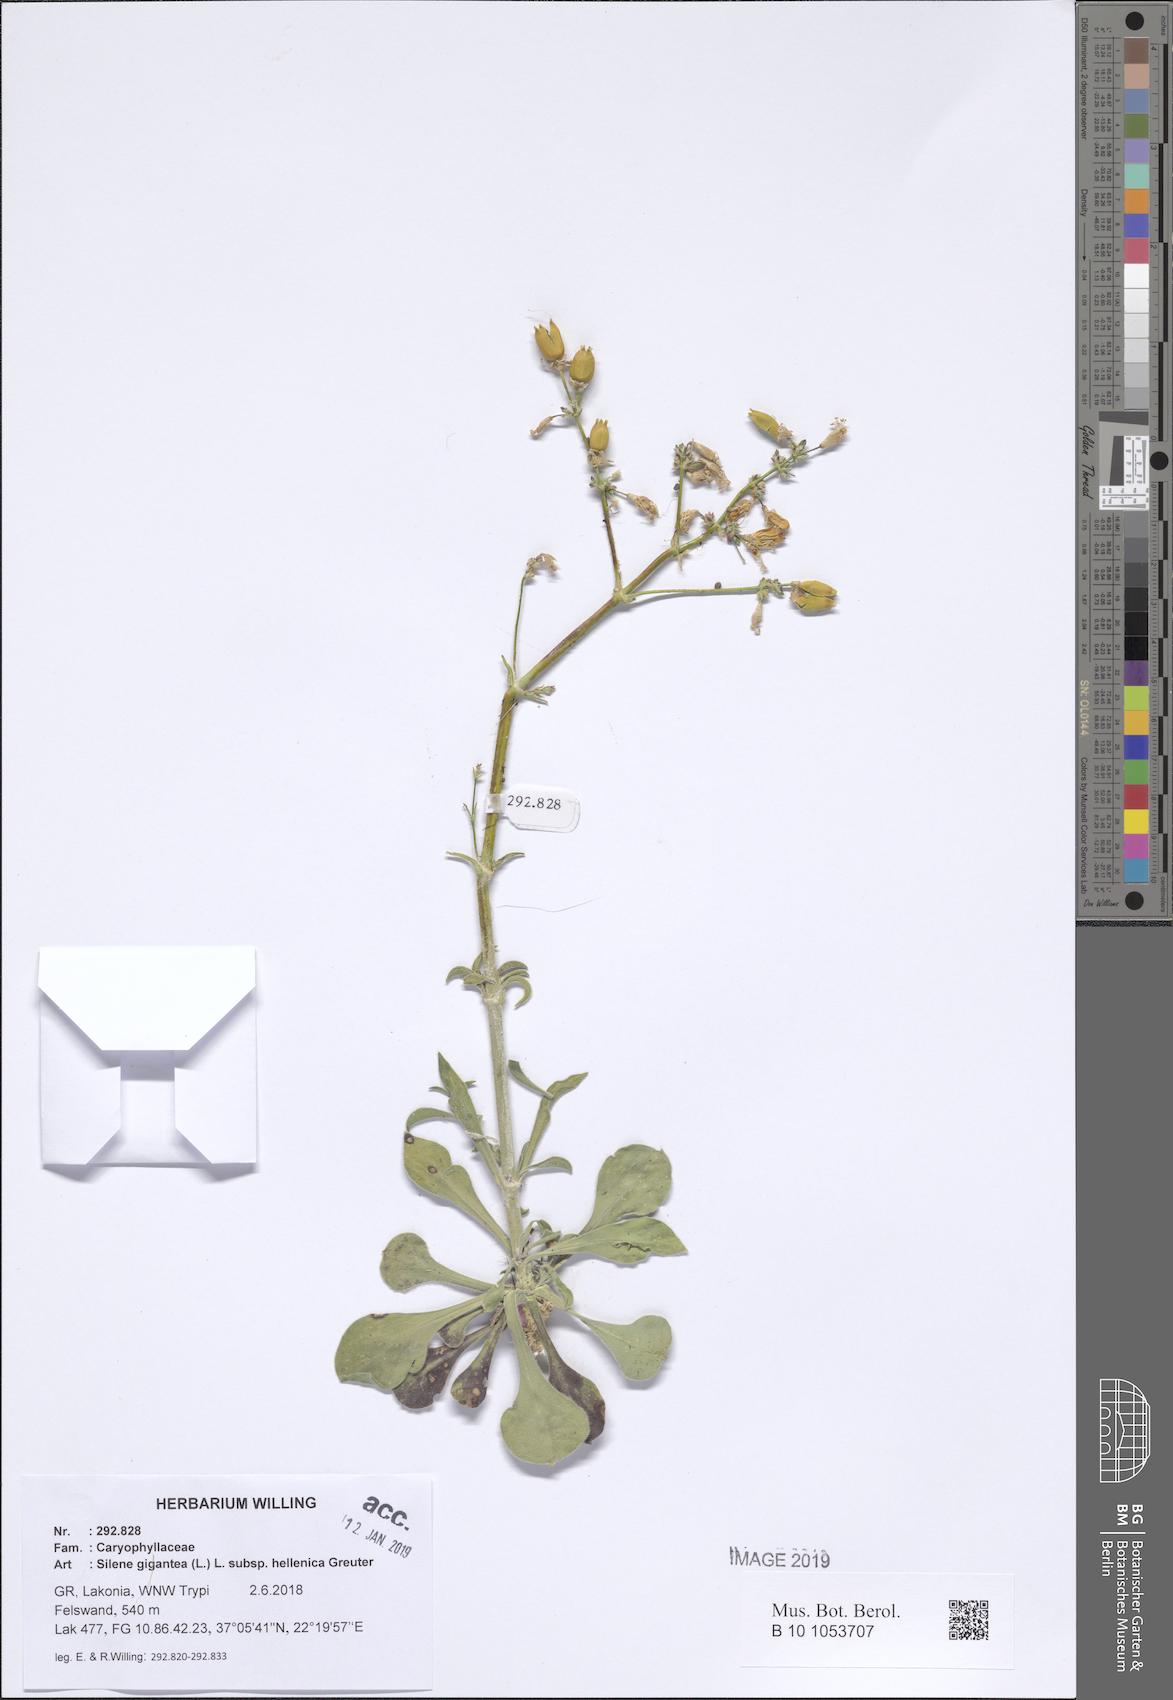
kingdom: Plantae
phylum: Tracheophyta
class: Magnoliopsida
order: Caryophyllales
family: Caryophyllaceae
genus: Silene
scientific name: Silene gigantea
